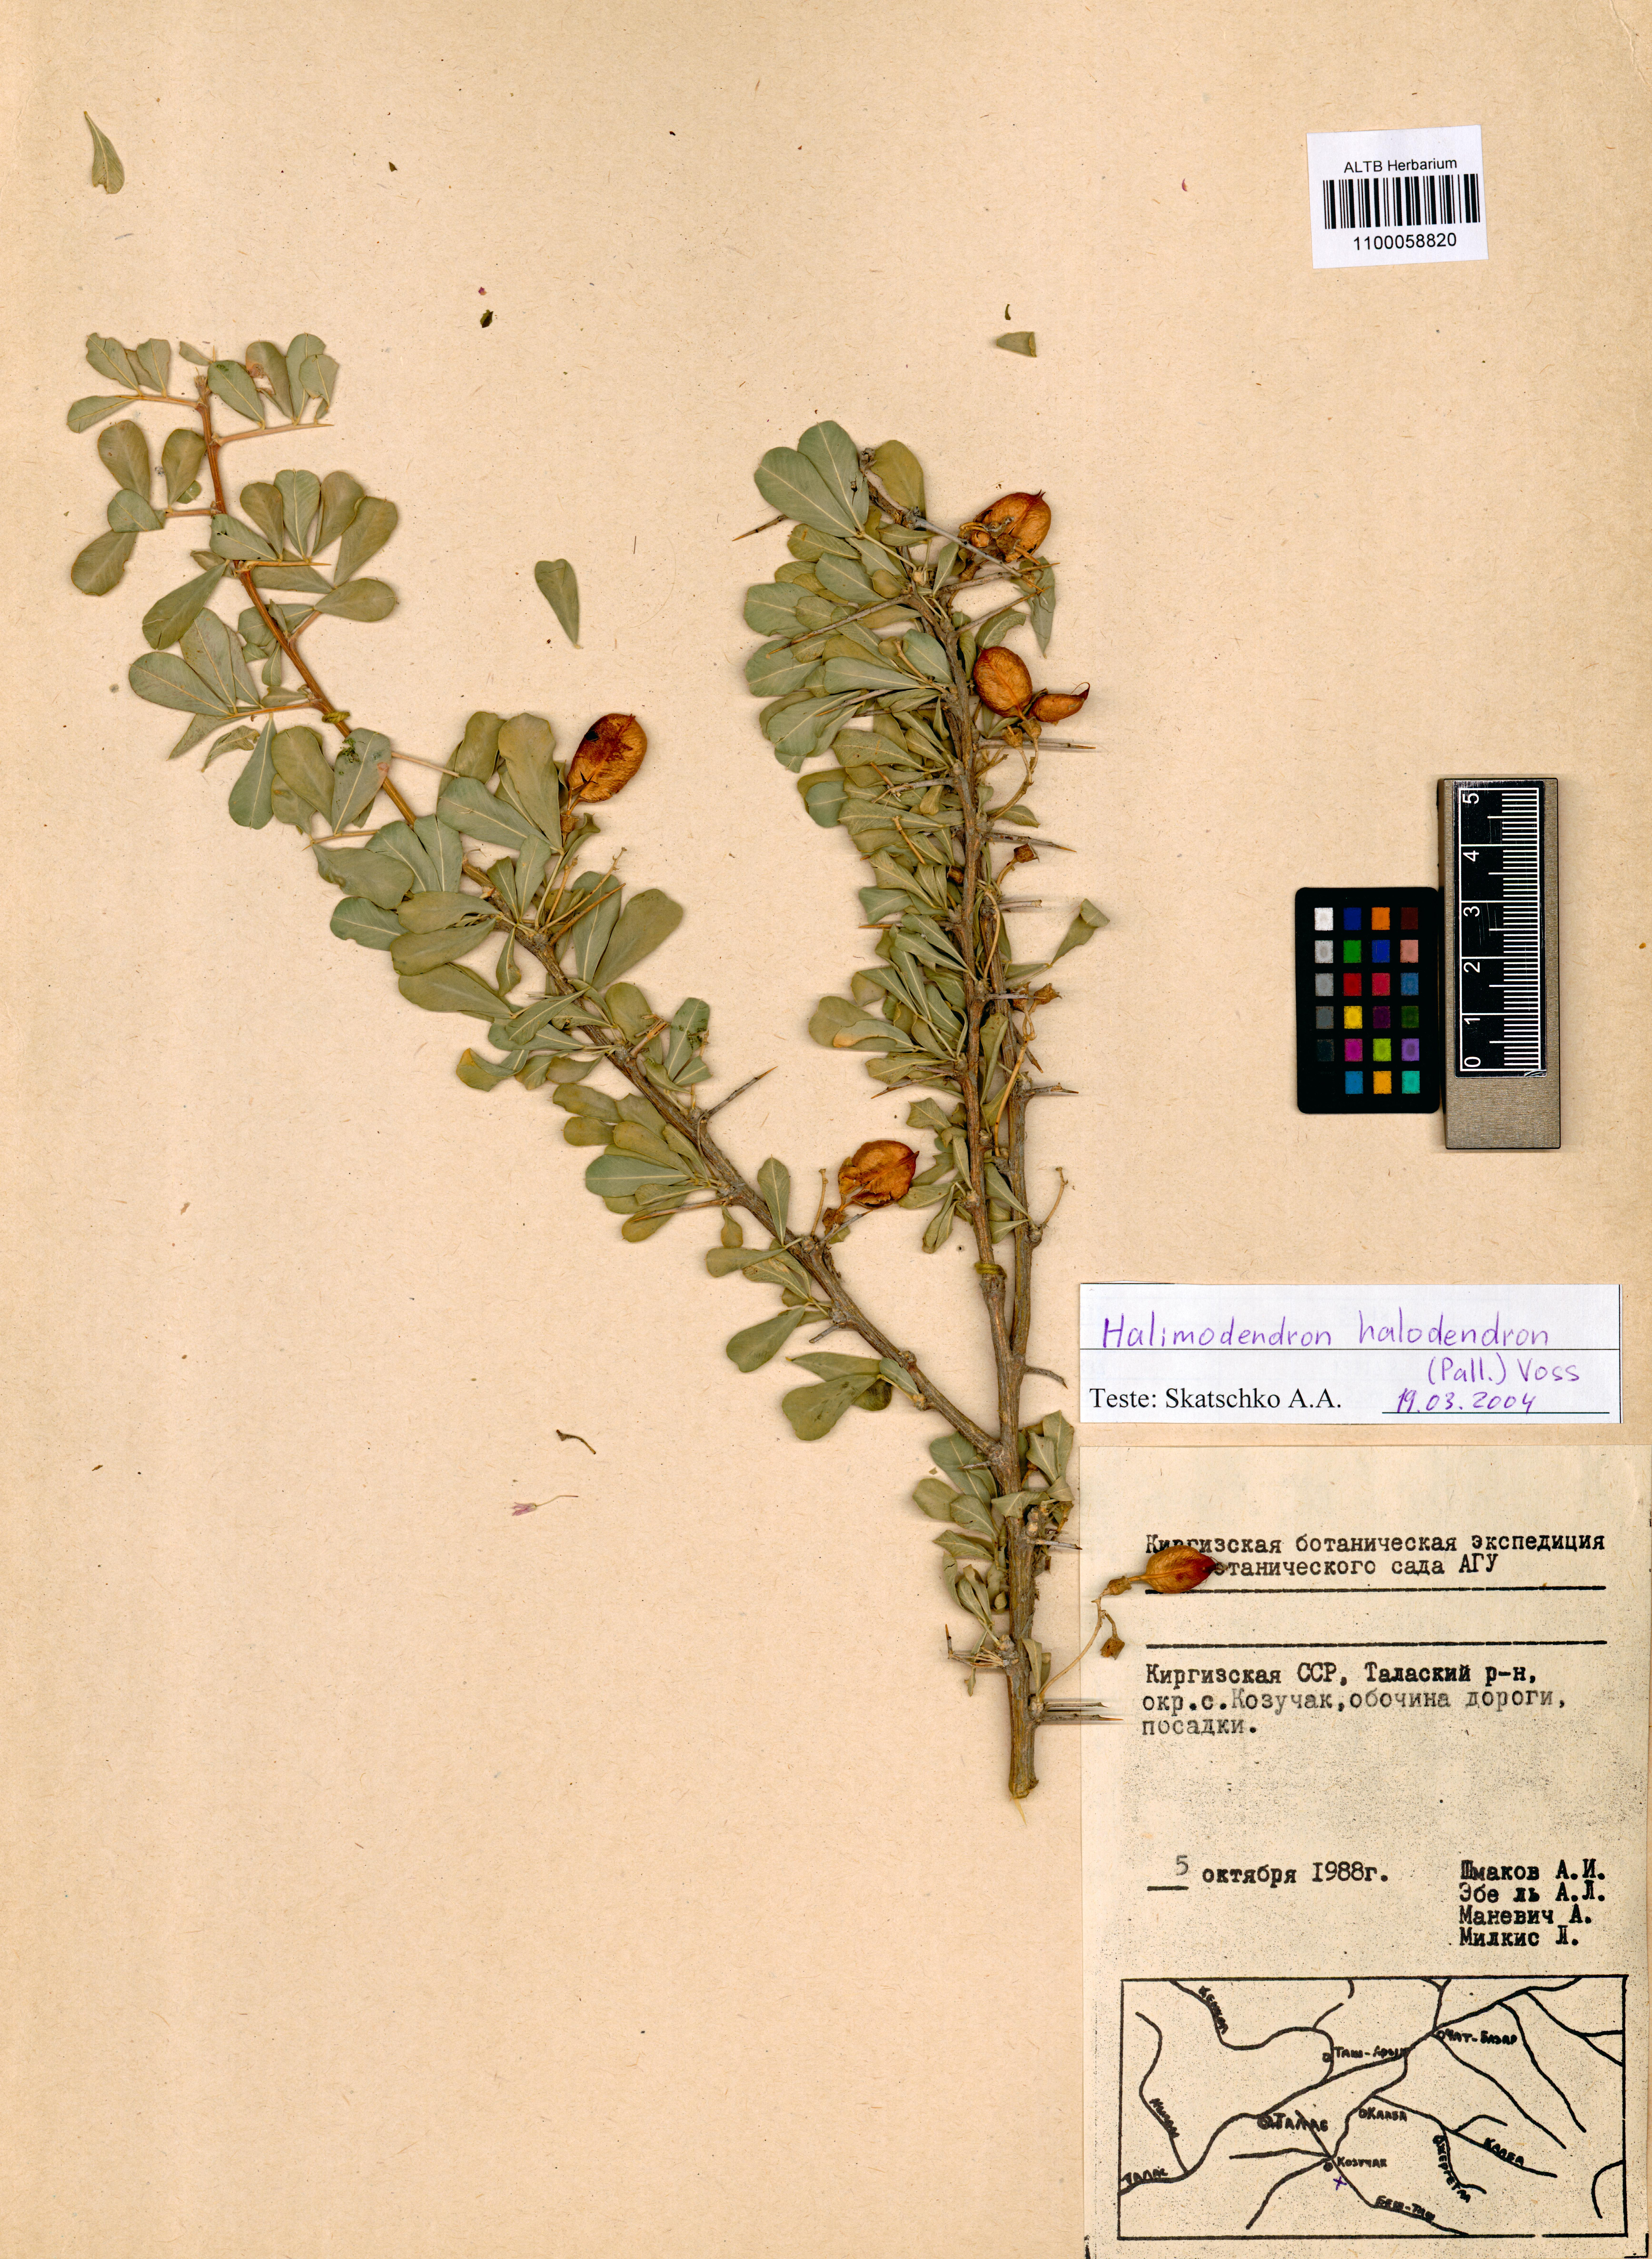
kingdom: Plantae
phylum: Tracheophyta
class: Magnoliopsida
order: Fabales
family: Fabaceae
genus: Caragana
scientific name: Caragana halodendron
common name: Siberian salt-tree
